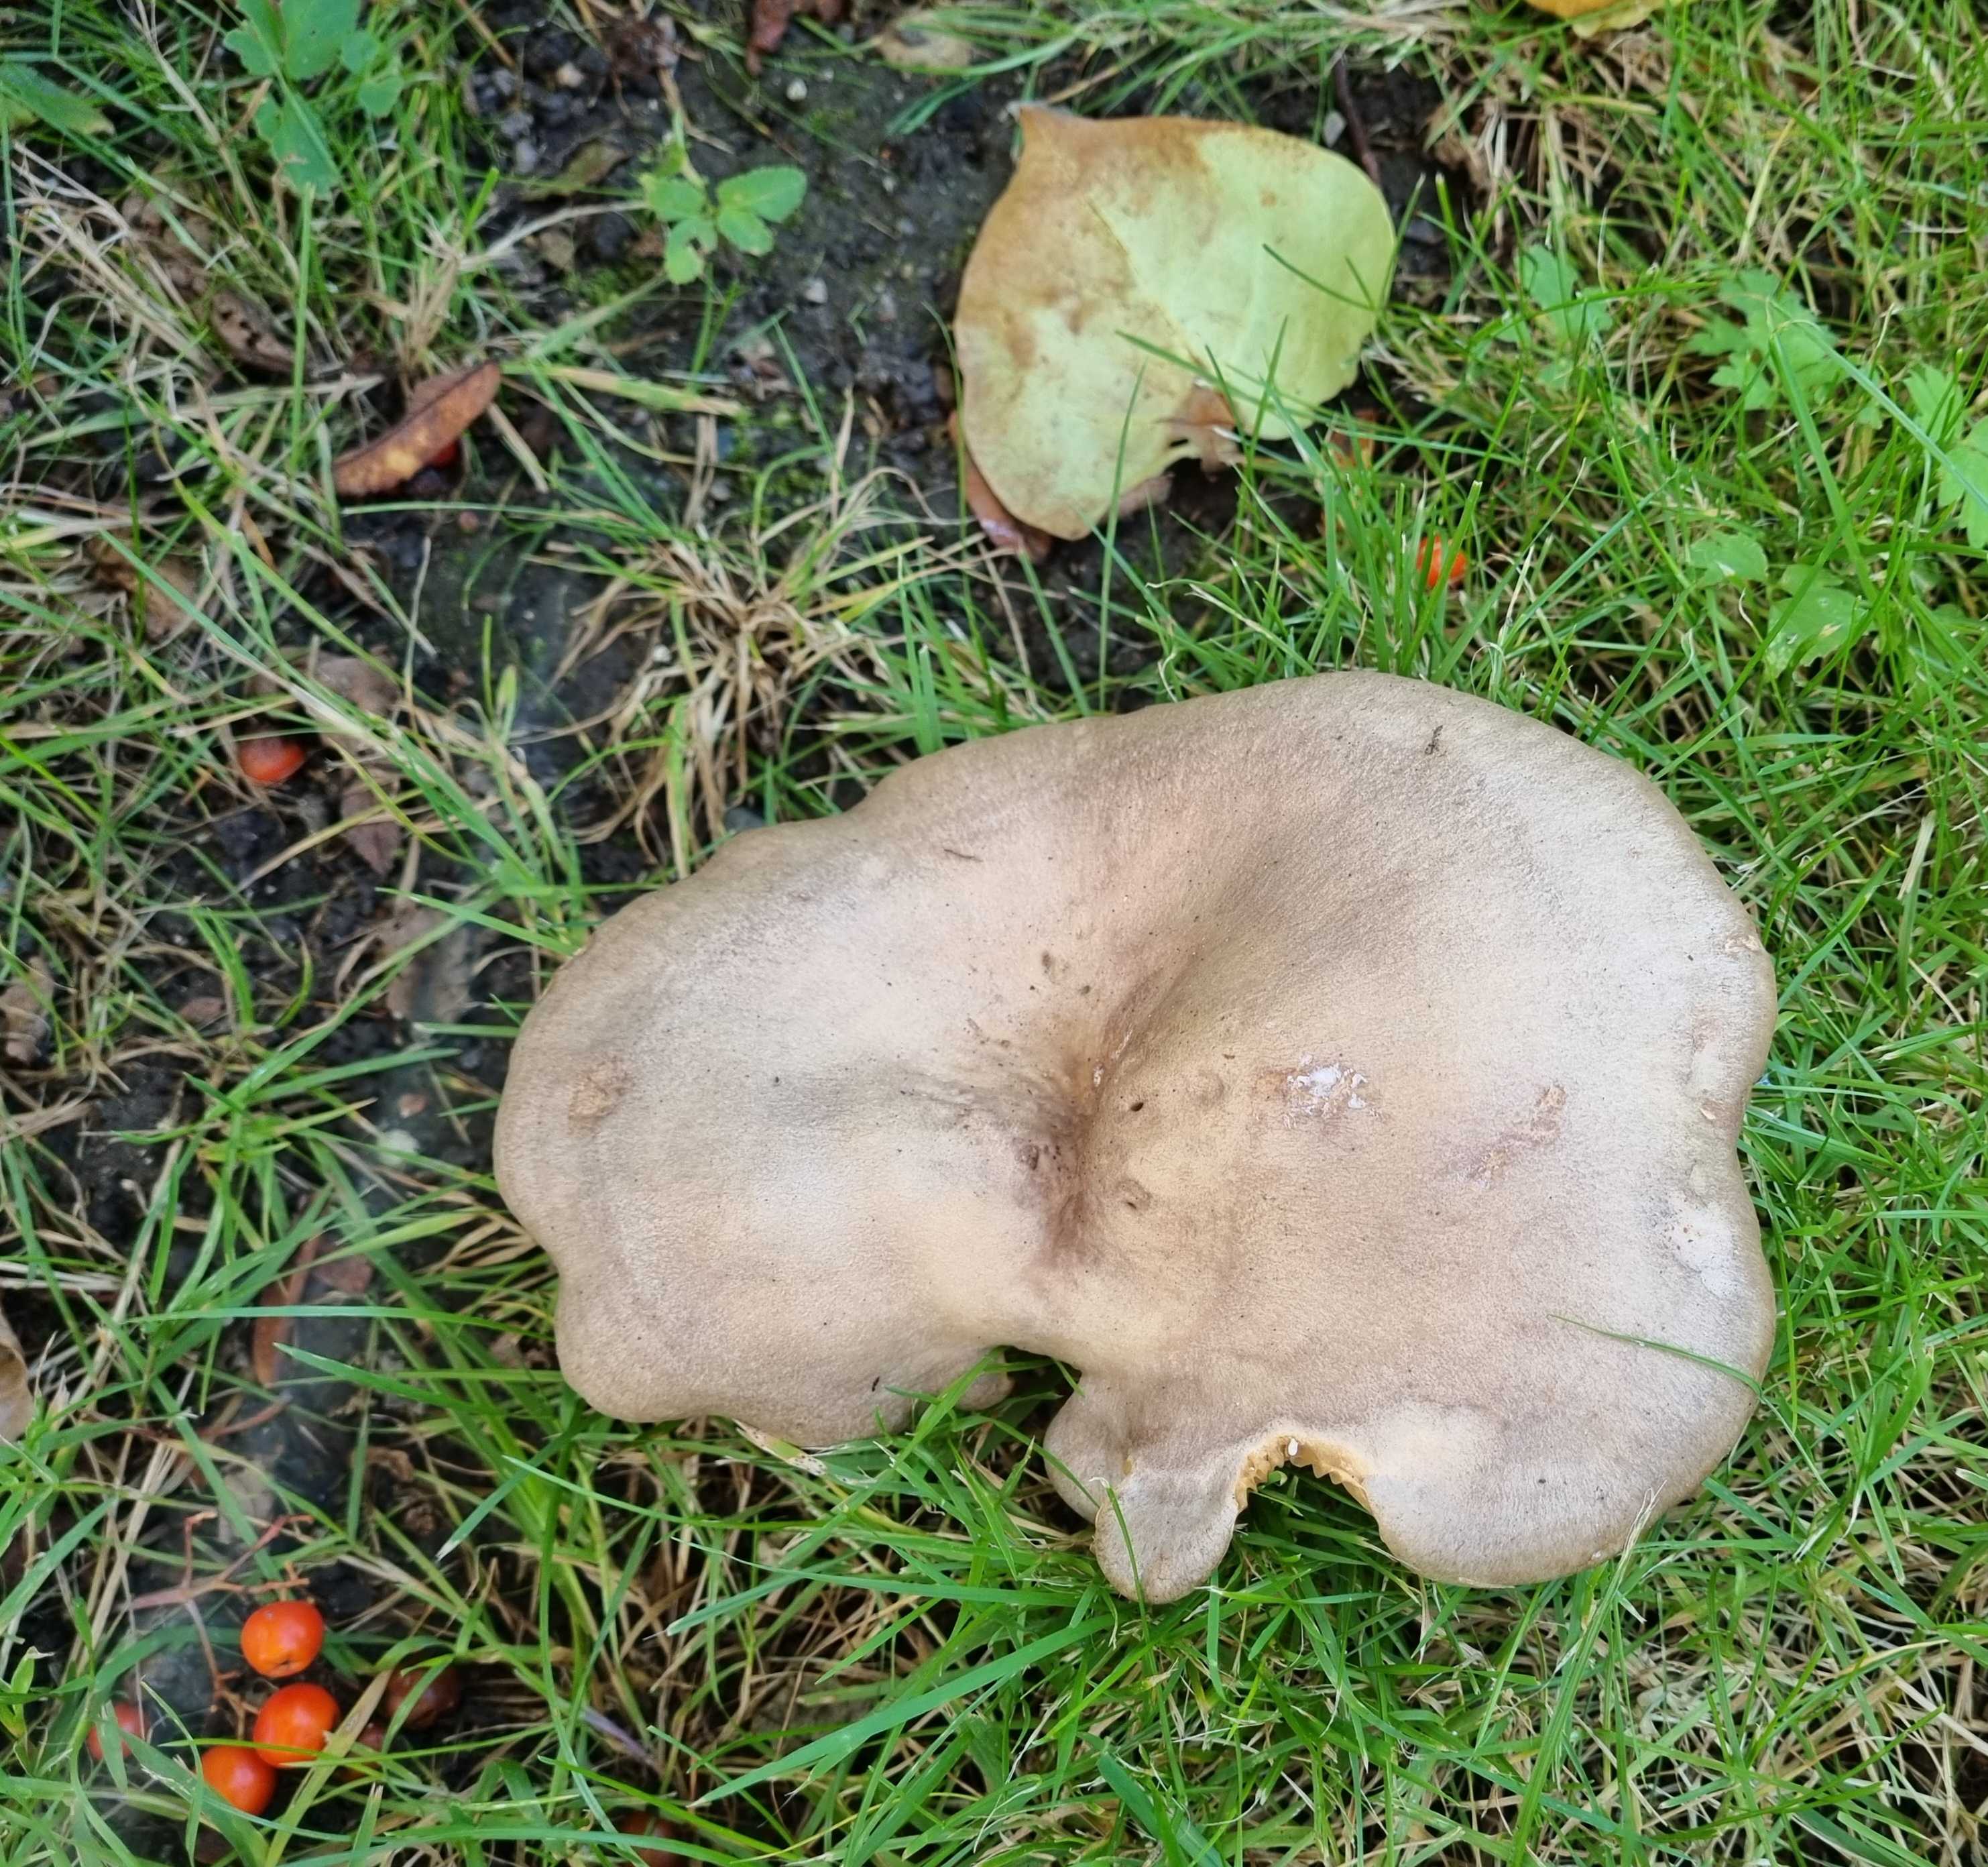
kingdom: Fungi
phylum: Basidiomycota
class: Agaricomycetes
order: Russulales
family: Russulaceae
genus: Lactarius
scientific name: Lactarius pyrogalus
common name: hassel-mælkehat
